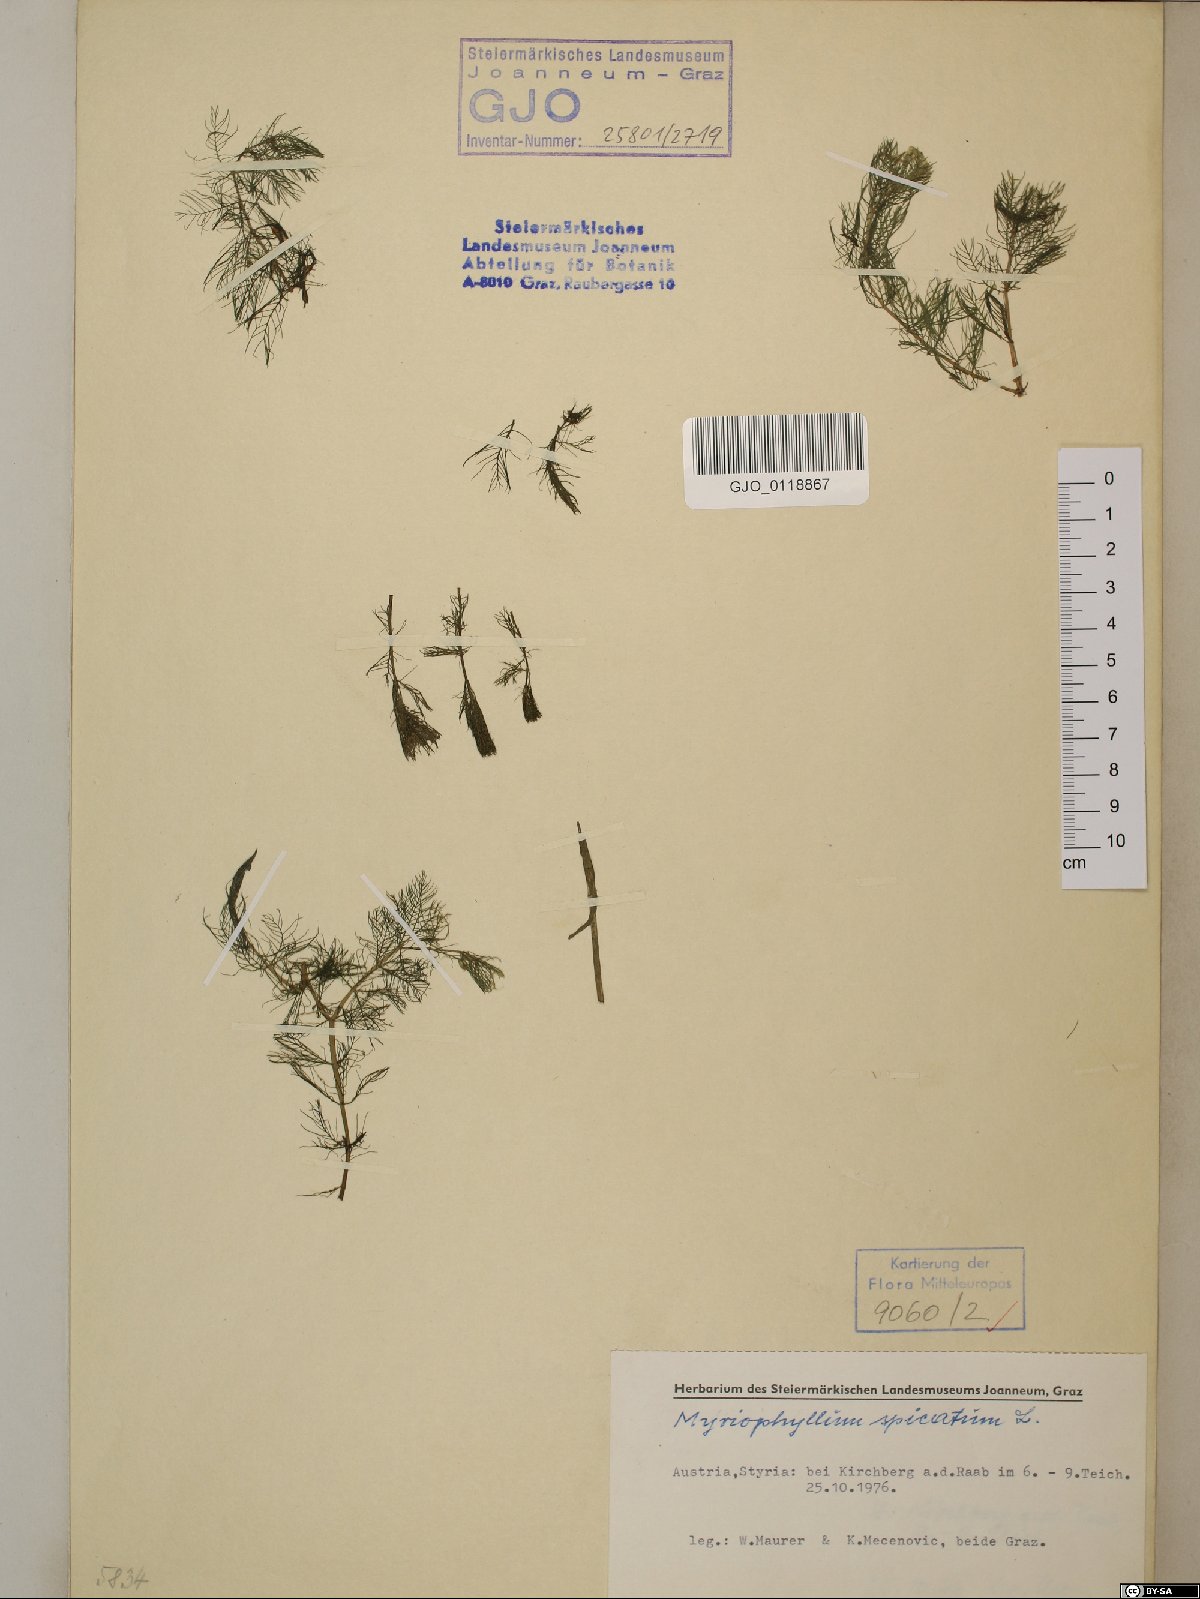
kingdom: Plantae
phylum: Tracheophyta
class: Magnoliopsida
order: Saxifragales
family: Haloragaceae
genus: Myriophyllum
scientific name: Myriophyllum spicatum
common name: Spiked water-milfoil
